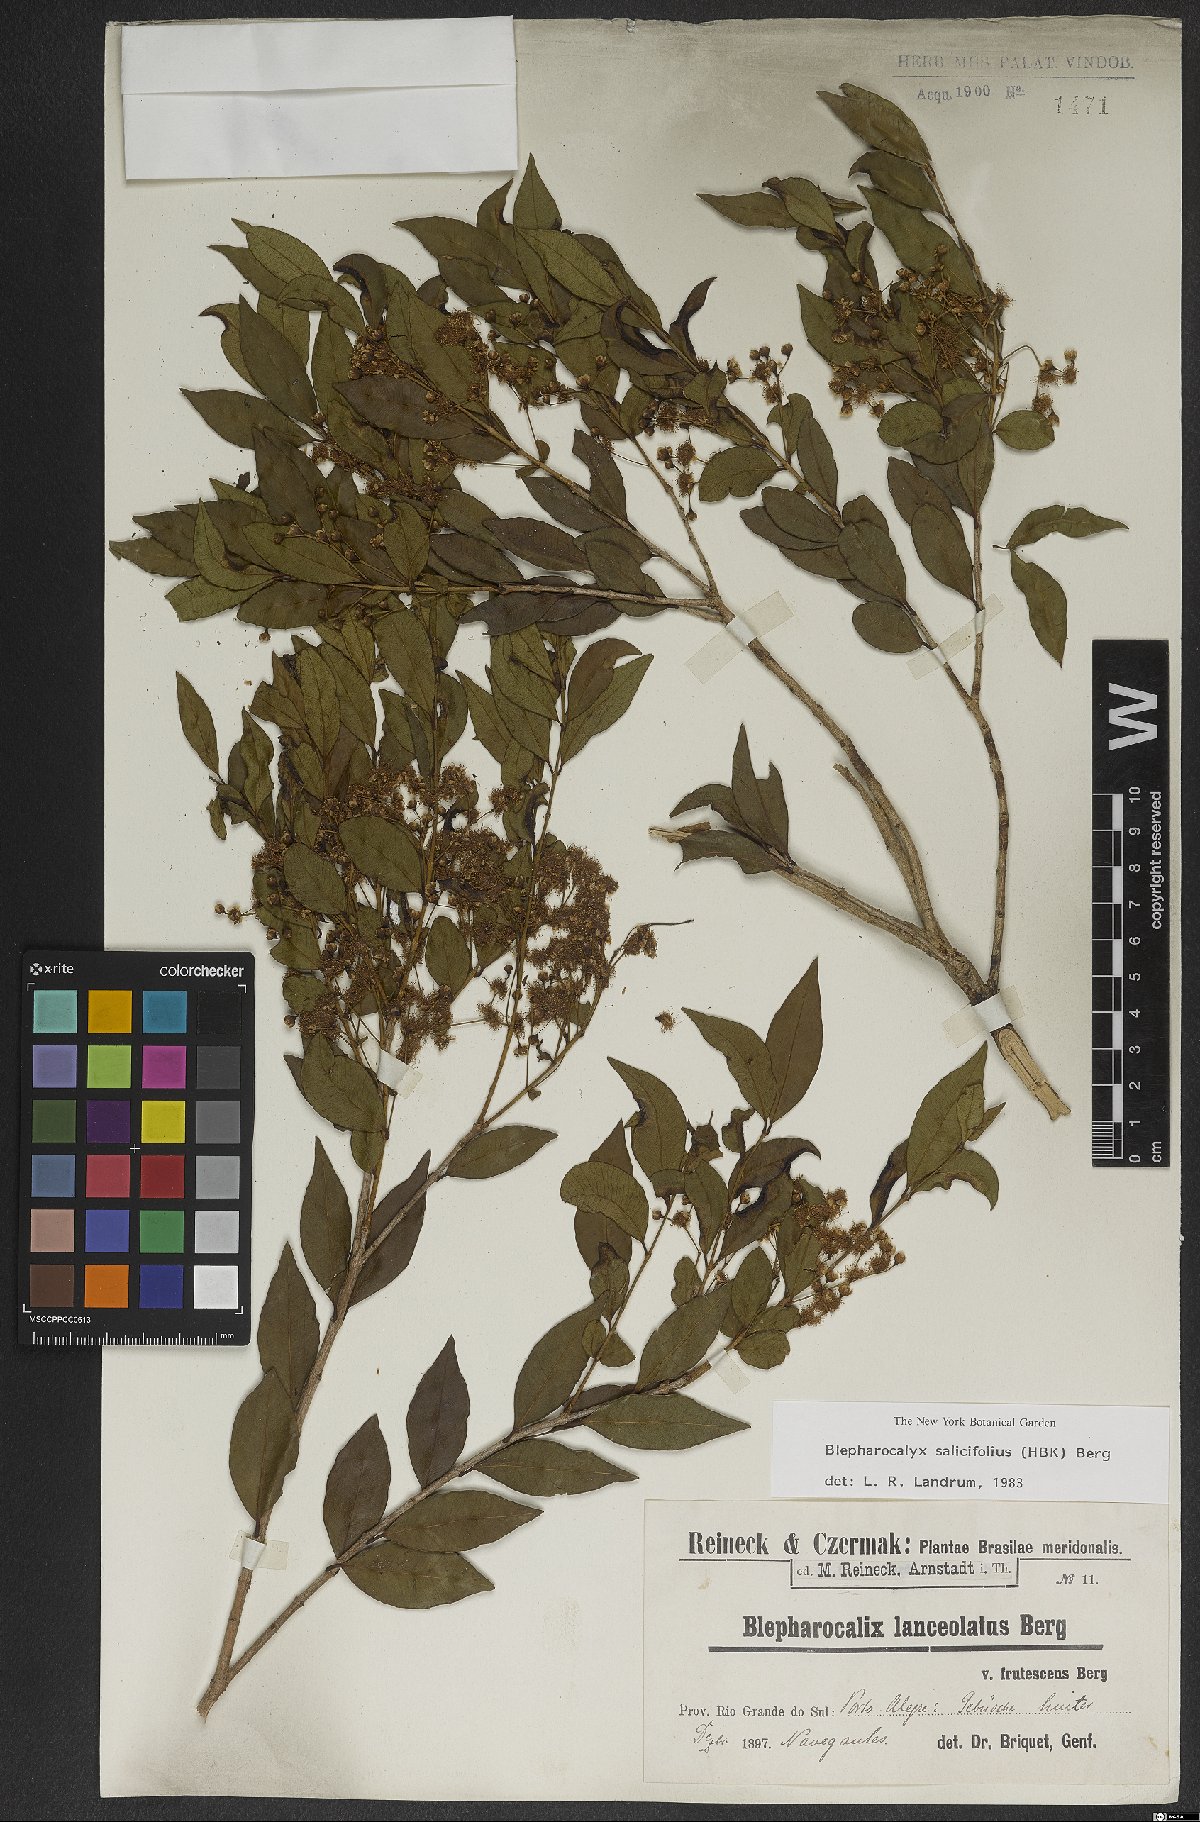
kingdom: Plantae
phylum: Tracheophyta
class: Magnoliopsida
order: Myrtales
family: Myrtaceae
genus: Blepharocalyx
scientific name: Blepharocalyx salicifolius
